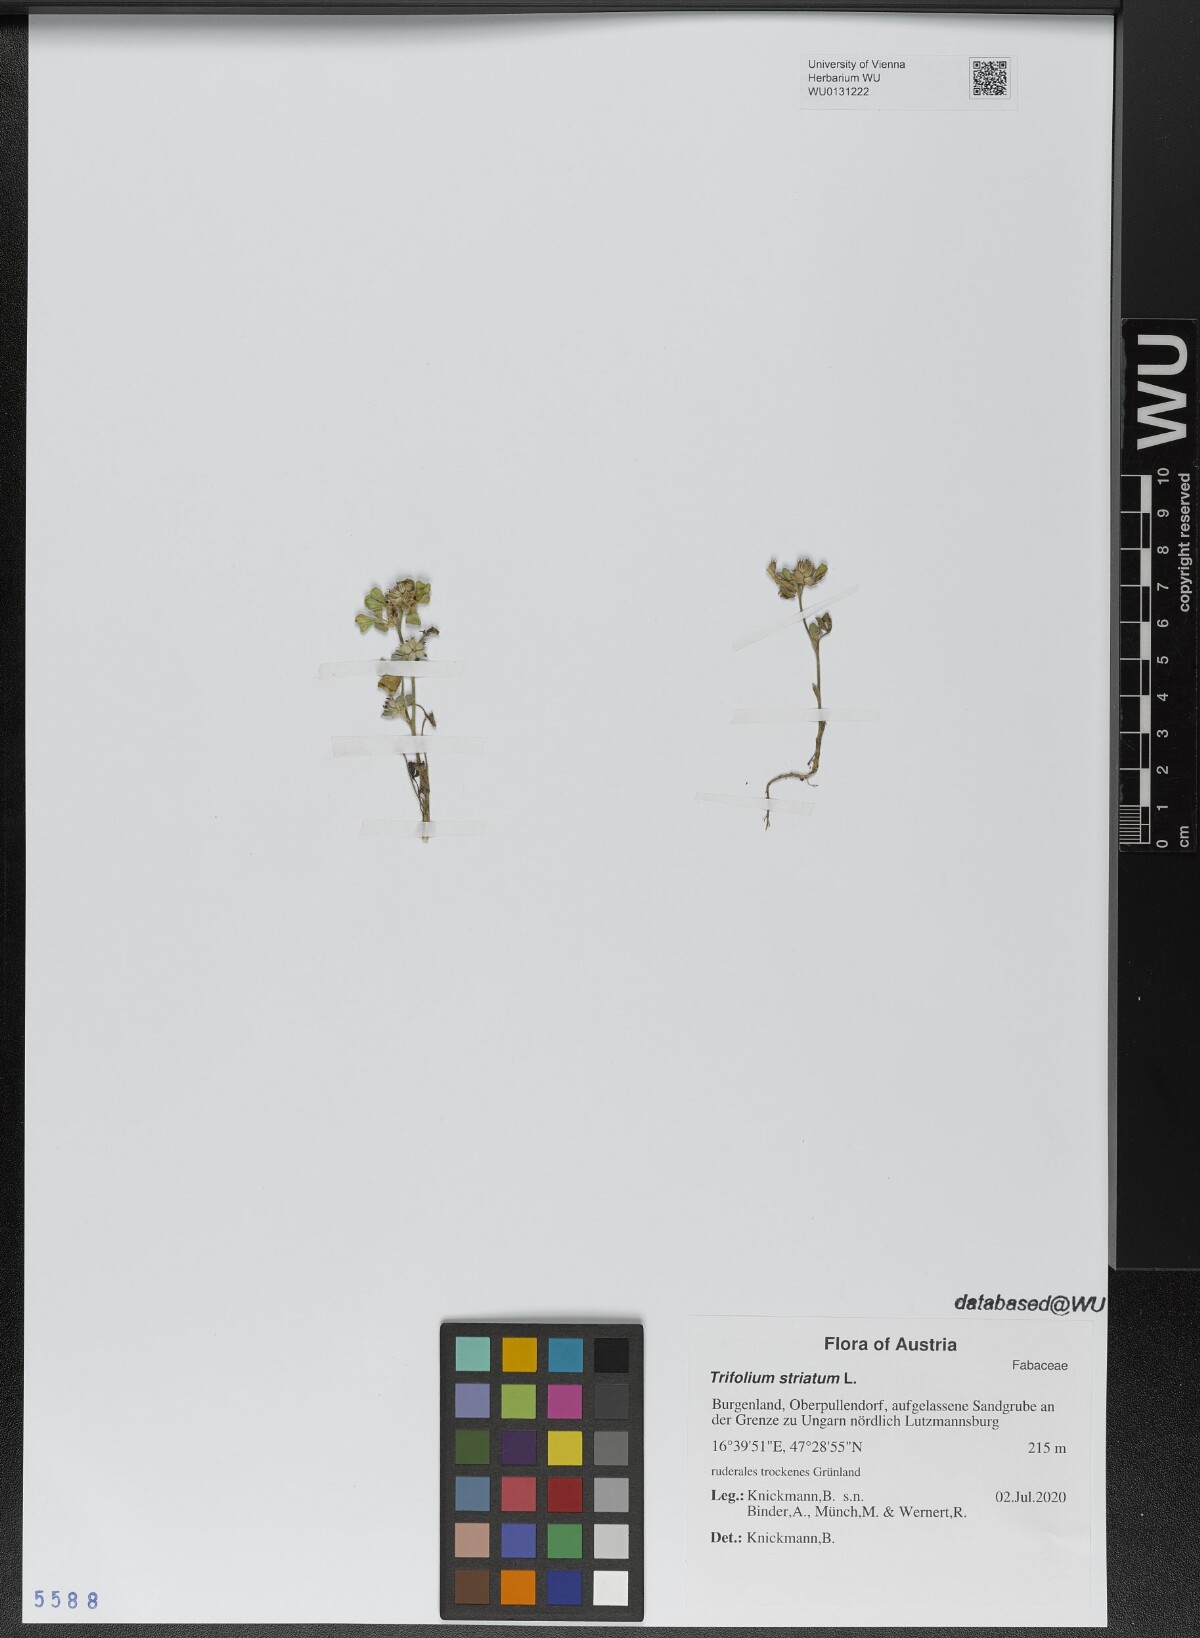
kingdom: Plantae
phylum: Tracheophyta
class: Magnoliopsida
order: Fabales
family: Fabaceae
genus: Trifolium
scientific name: Trifolium striatum
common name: Knotted clover
